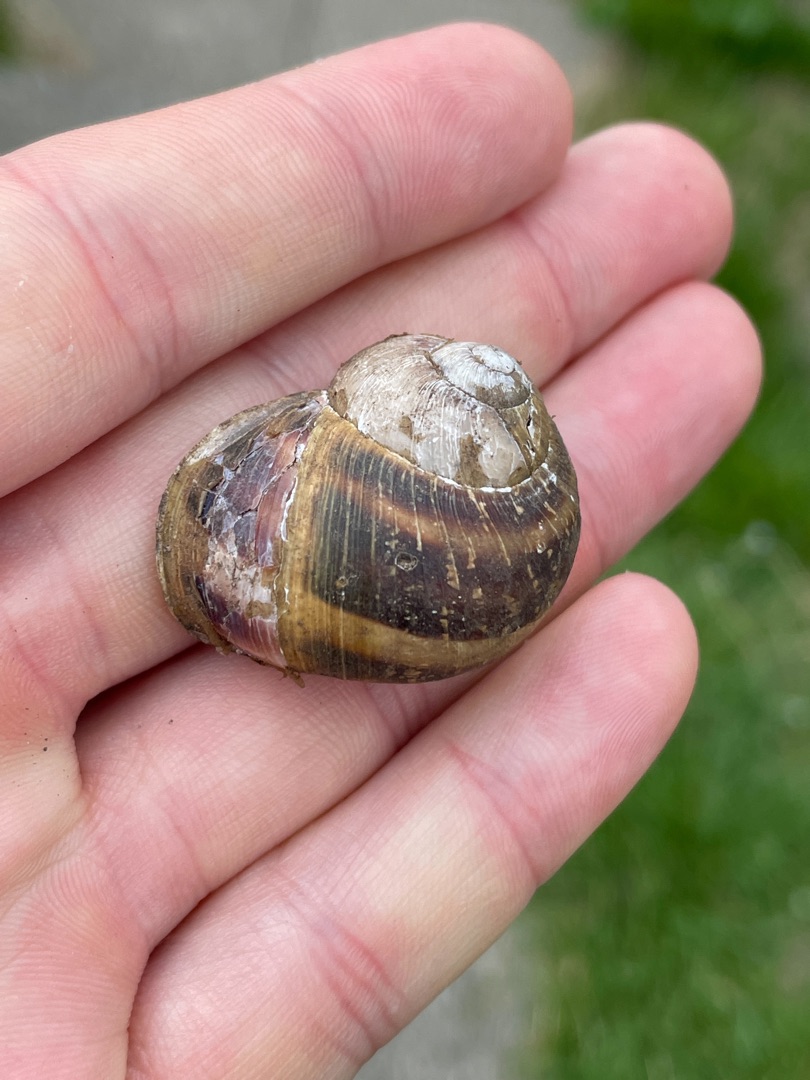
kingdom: Animalia
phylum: Mollusca
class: Gastropoda
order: Stylommatophora
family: Helicidae
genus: Helix
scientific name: Helix pomatia
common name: Vinbjergsnegl
